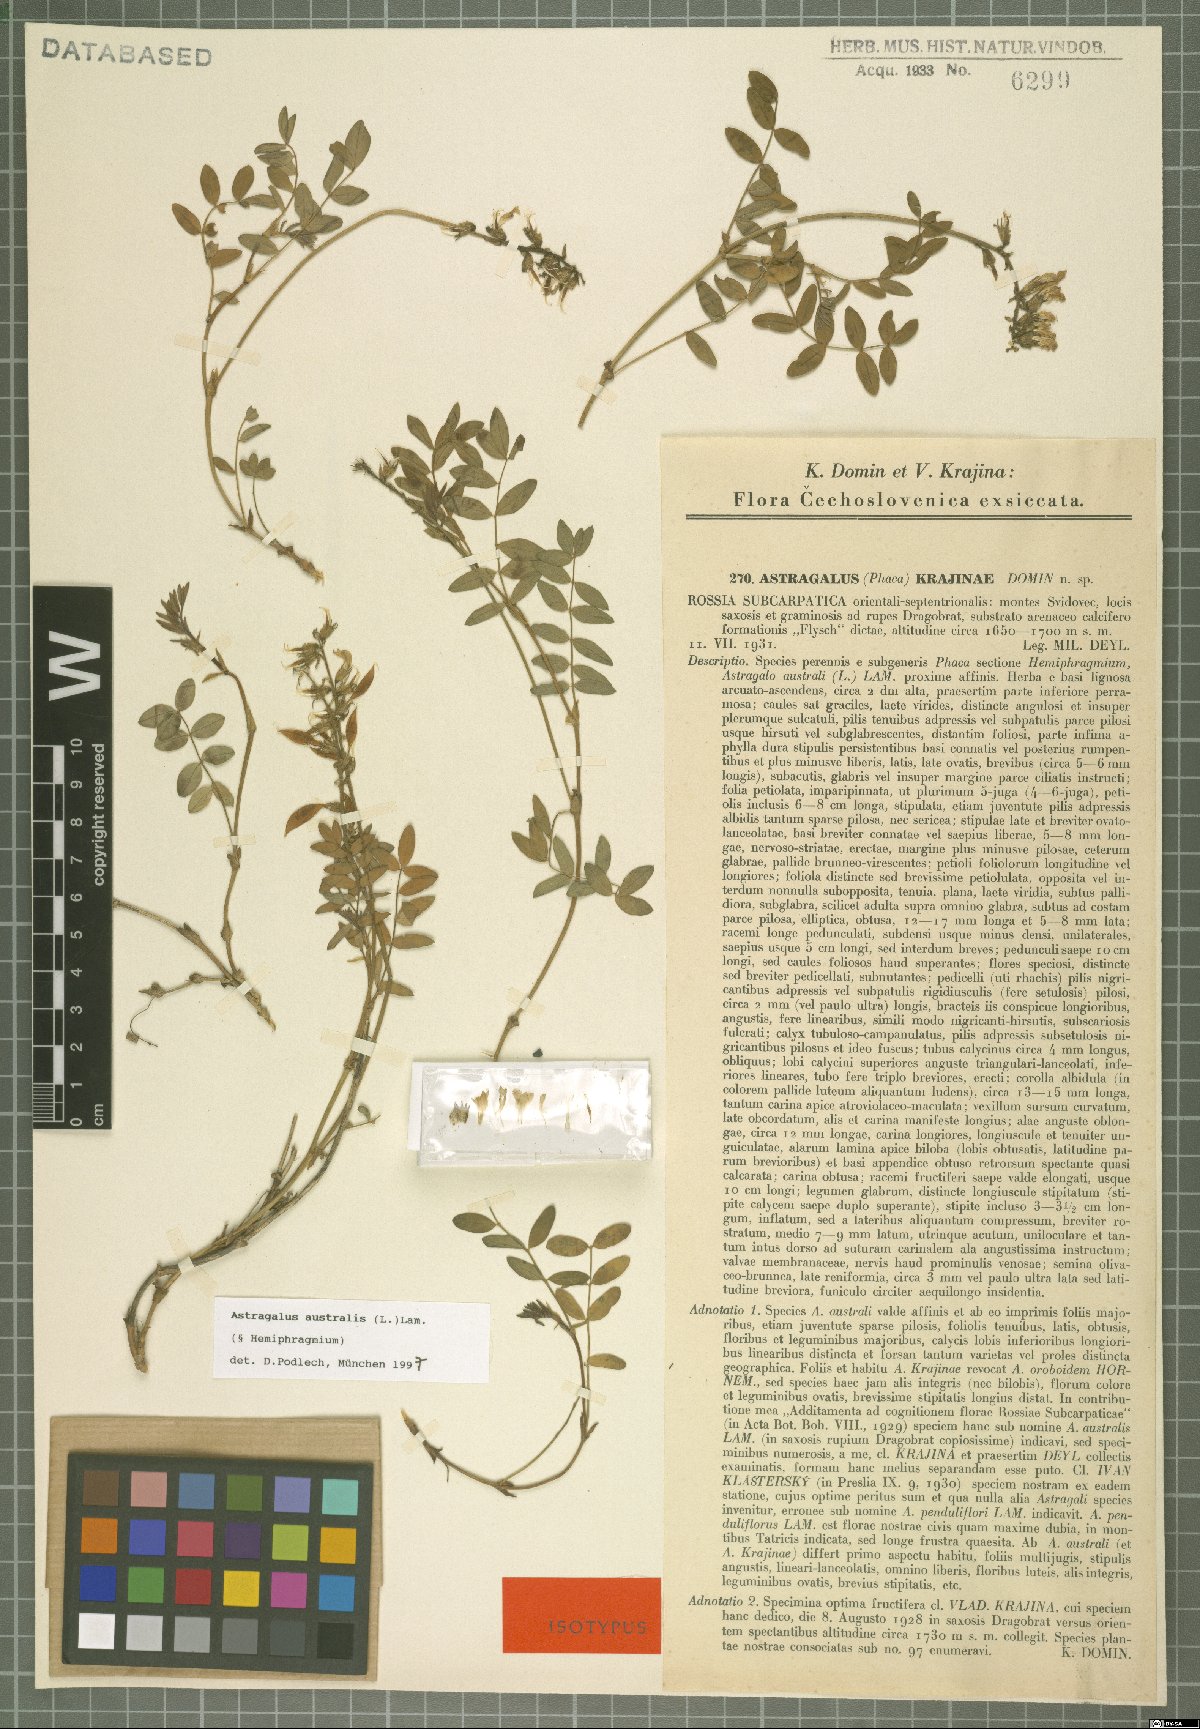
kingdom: Plantae
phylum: Tracheophyta
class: Magnoliopsida
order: Fabales
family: Fabaceae
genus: Astragalus
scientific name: Astragalus australis
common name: Indian milk-vetch
